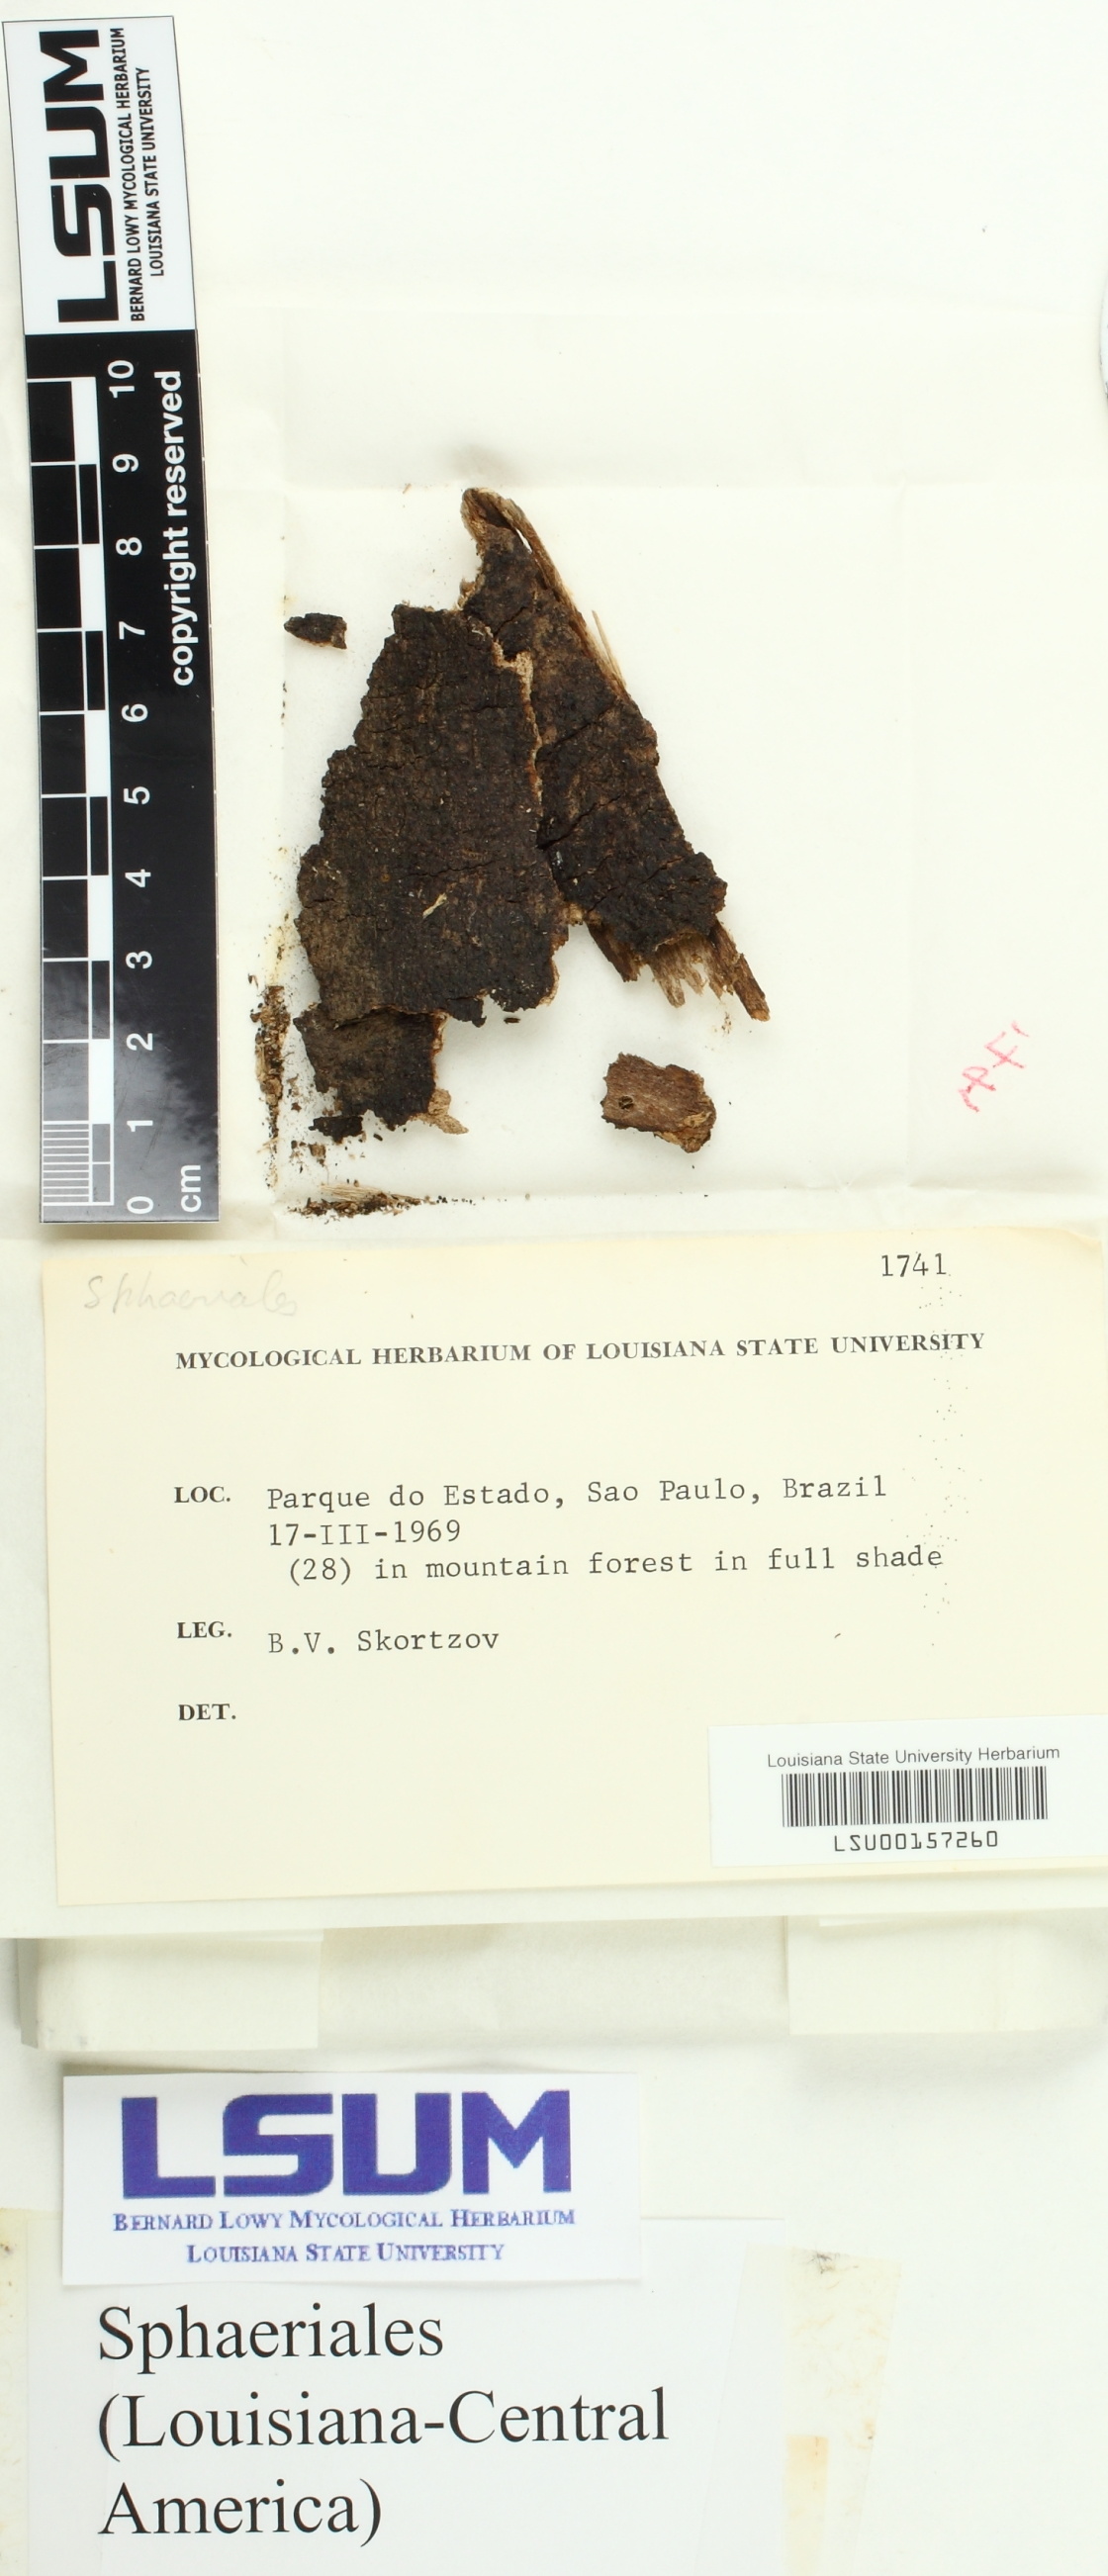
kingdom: Fungi
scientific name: Fungi
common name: Fungi
